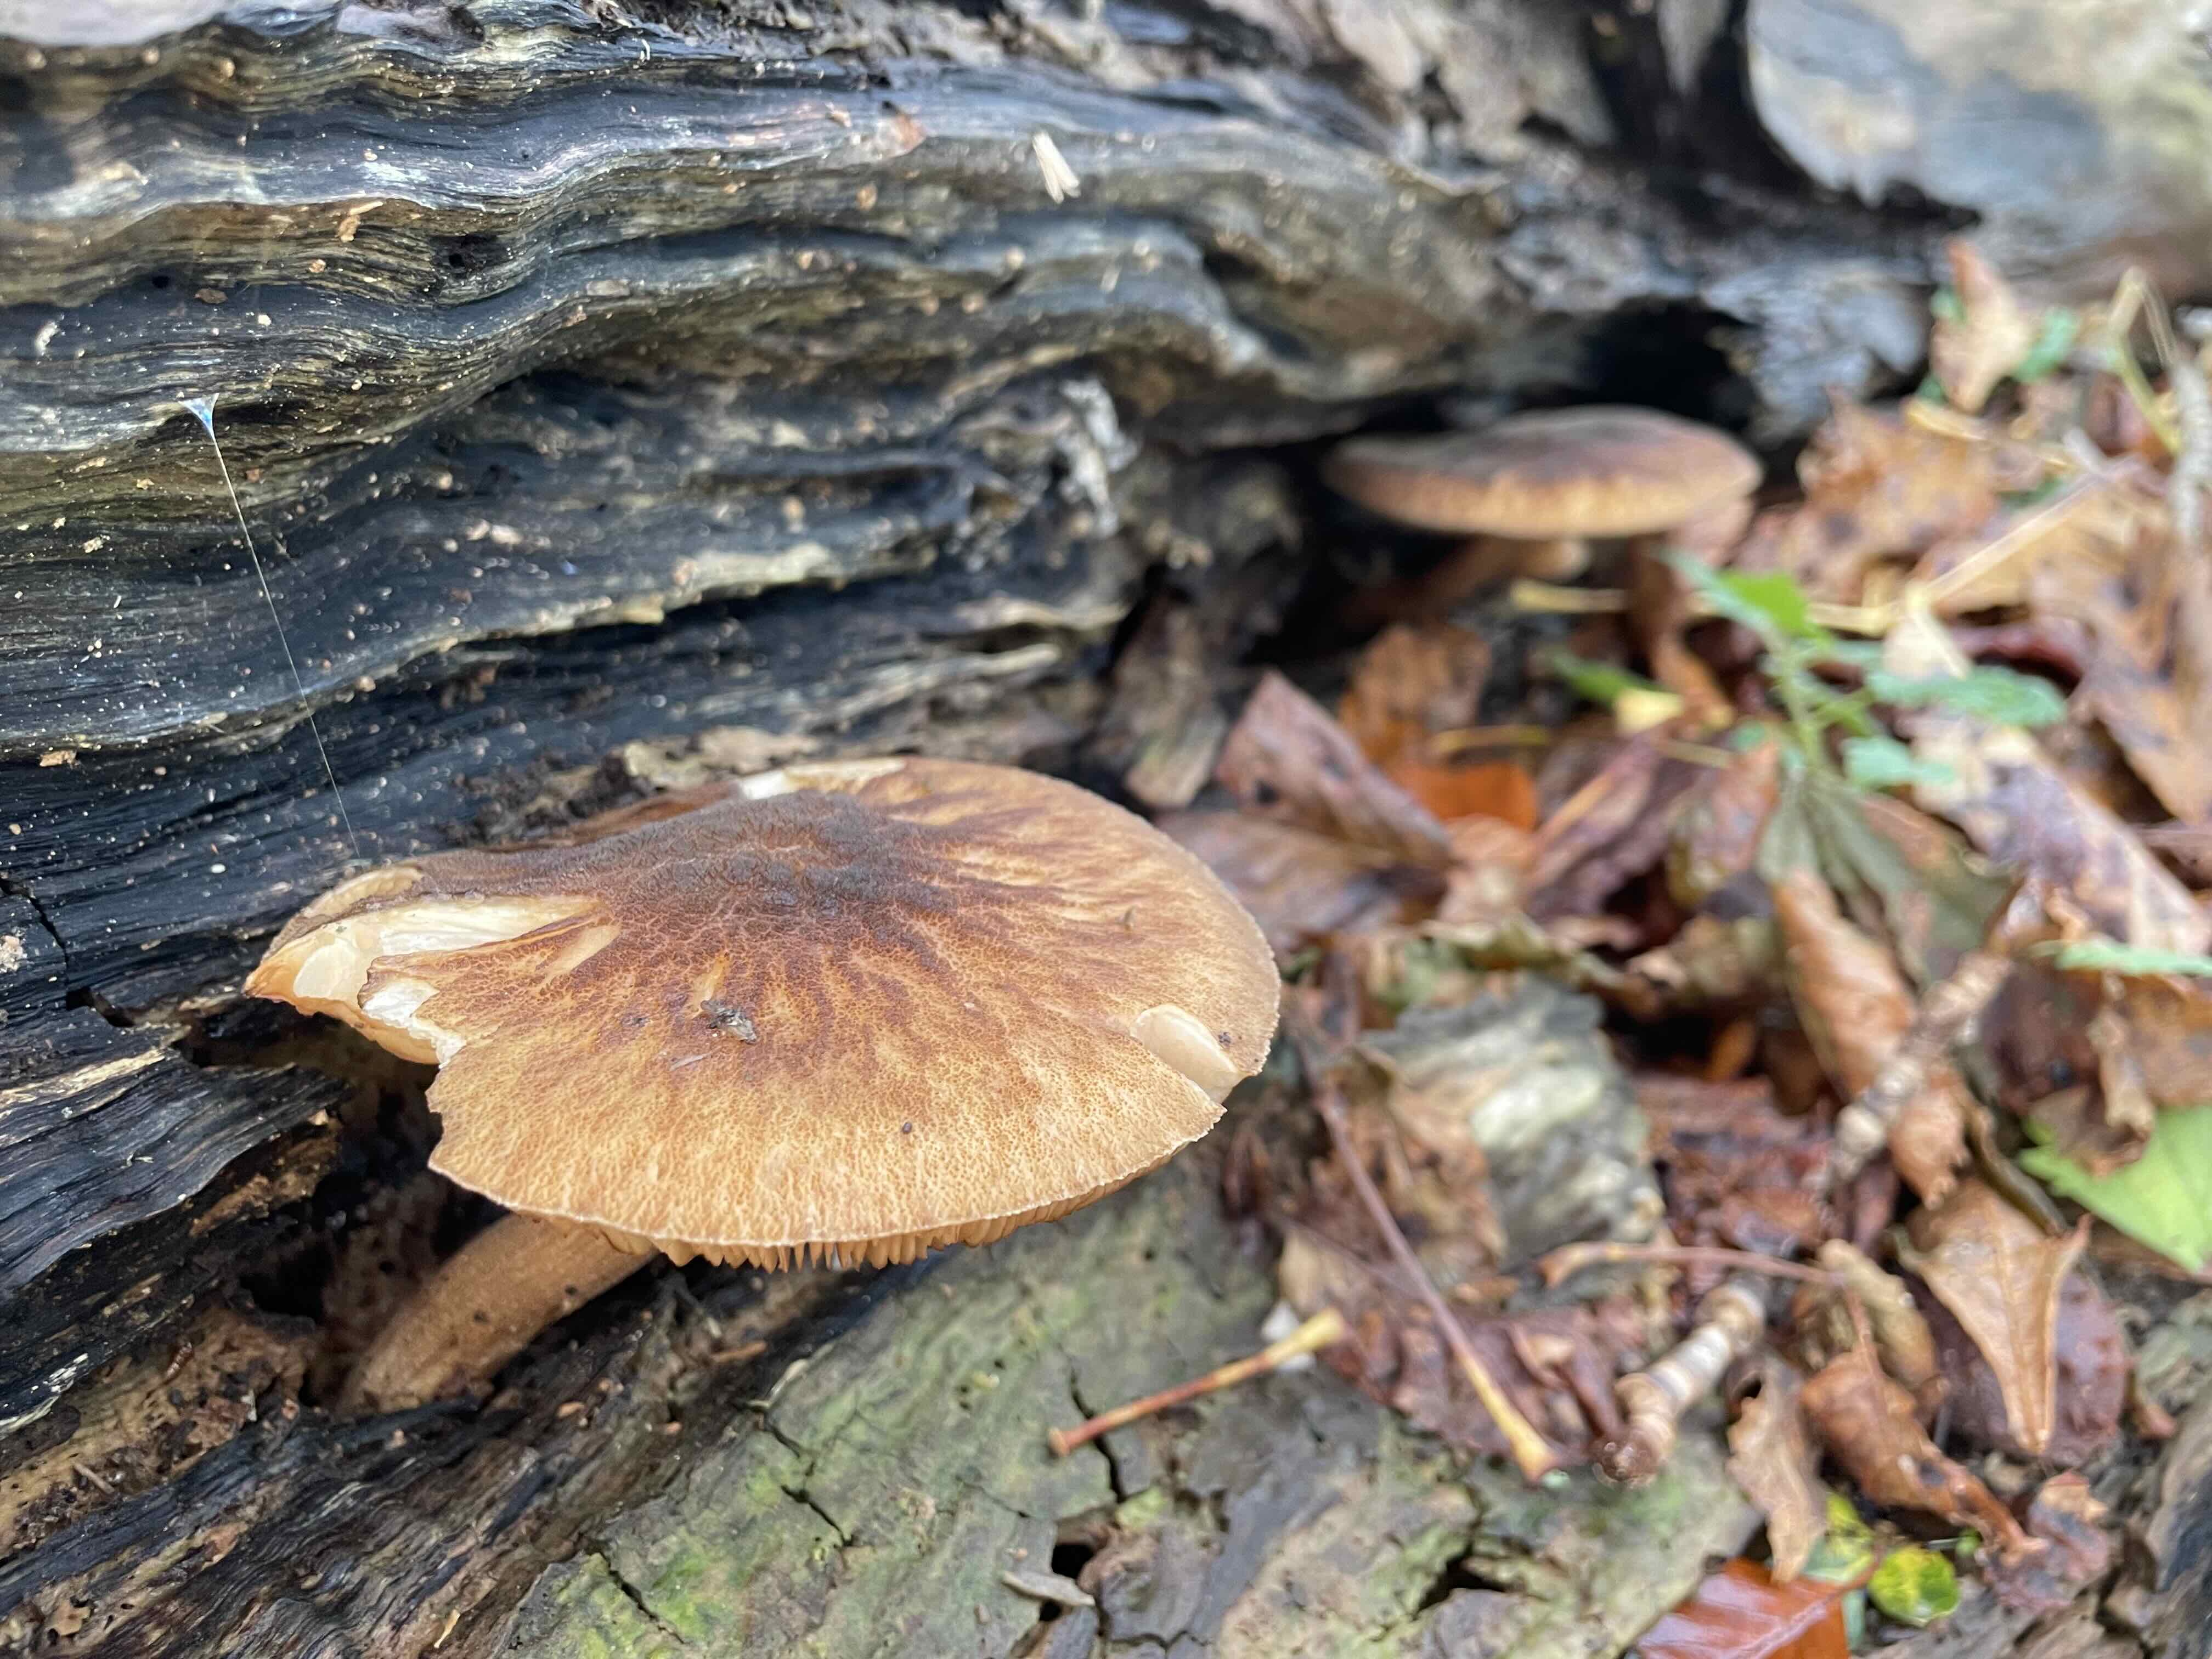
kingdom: Fungi
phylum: Basidiomycota
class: Agaricomycetes
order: Agaricales
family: Pluteaceae
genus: Pluteus
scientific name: Pluteus umbrosus
